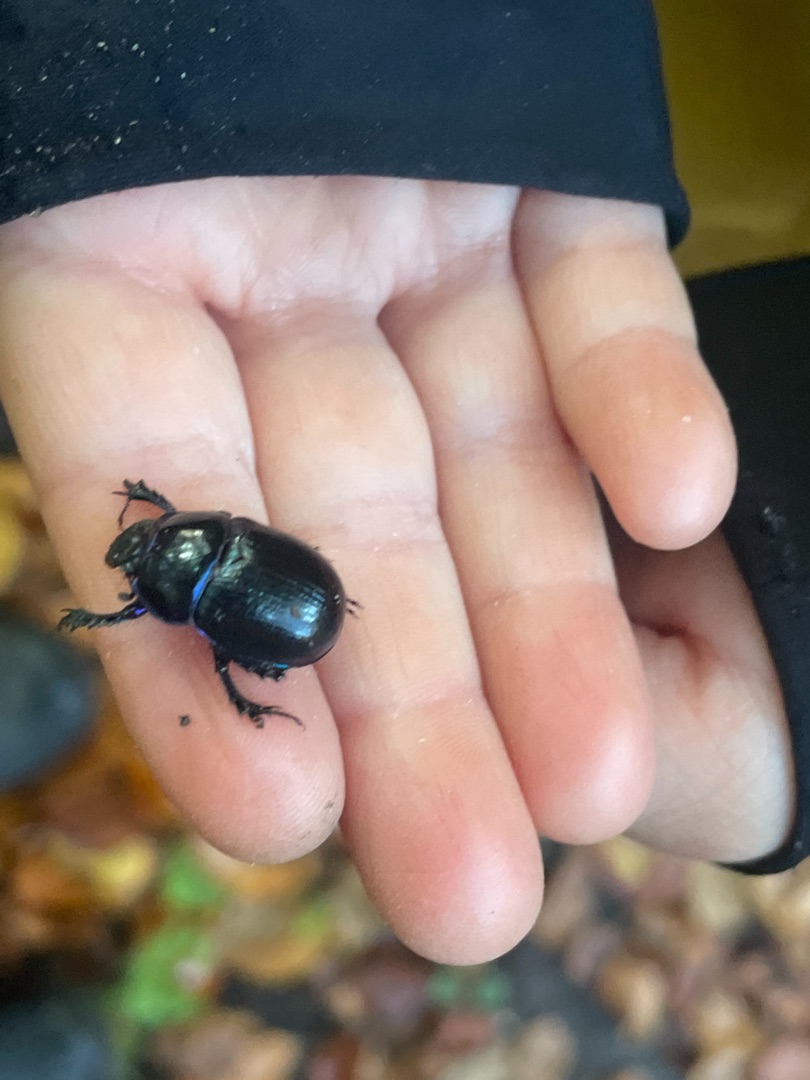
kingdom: Animalia
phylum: Arthropoda
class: Insecta
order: Coleoptera
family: Geotrupidae
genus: Anoplotrupes
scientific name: Anoplotrupes stercorosus
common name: Skovskarnbasse
